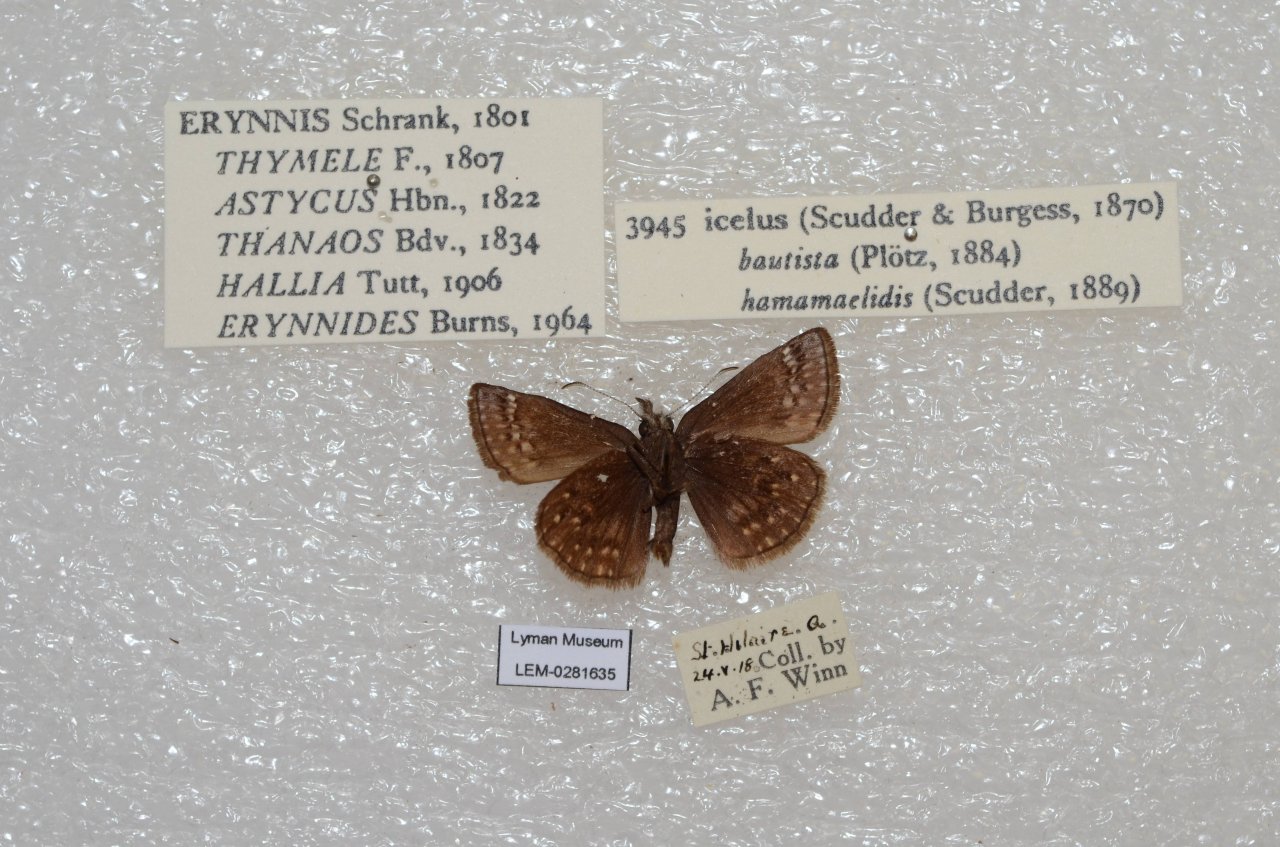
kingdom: Animalia
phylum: Arthropoda
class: Insecta
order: Lepidoptera
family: Hesperiidae
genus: Erynnis
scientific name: Erynnis icelus
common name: Dreamy Duskywing
